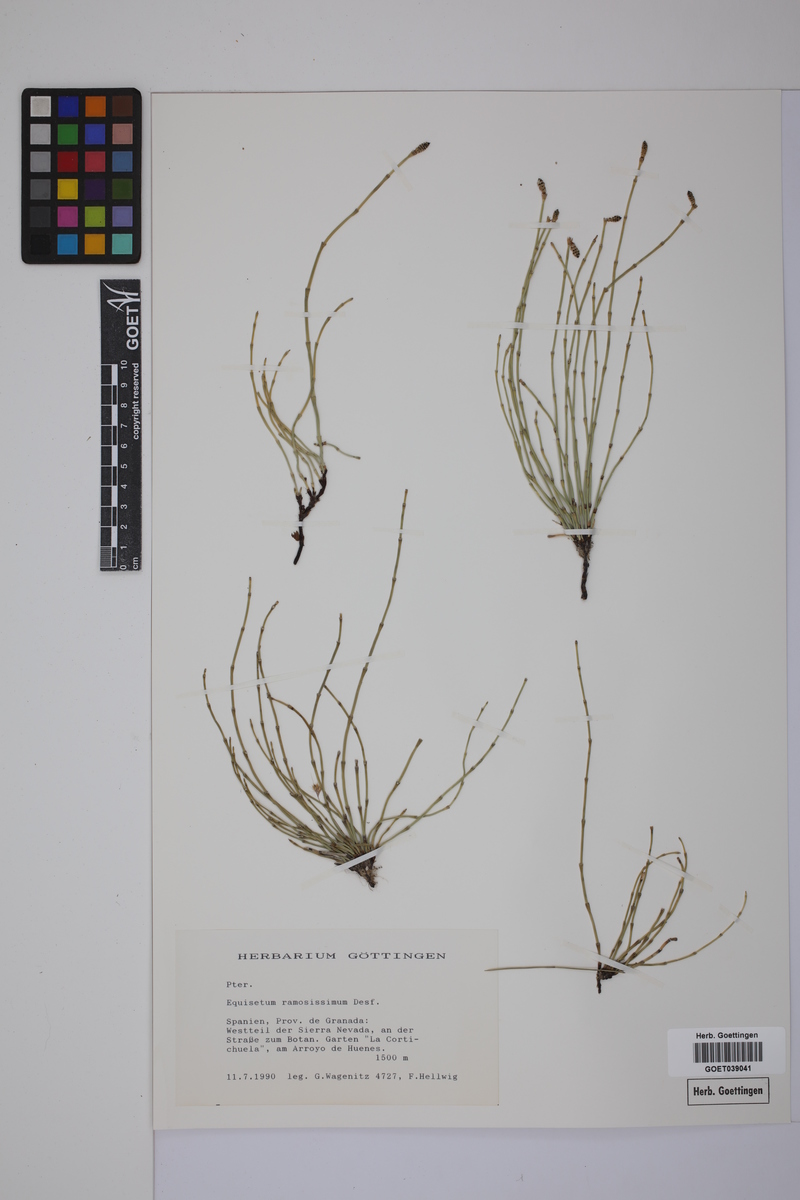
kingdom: Plantae
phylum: Tracheophyta
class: Polypodiopsida
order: Equisetales
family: Equisetaceae
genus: Equisetum
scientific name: Equisetum giganteum
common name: Giant horsetail
